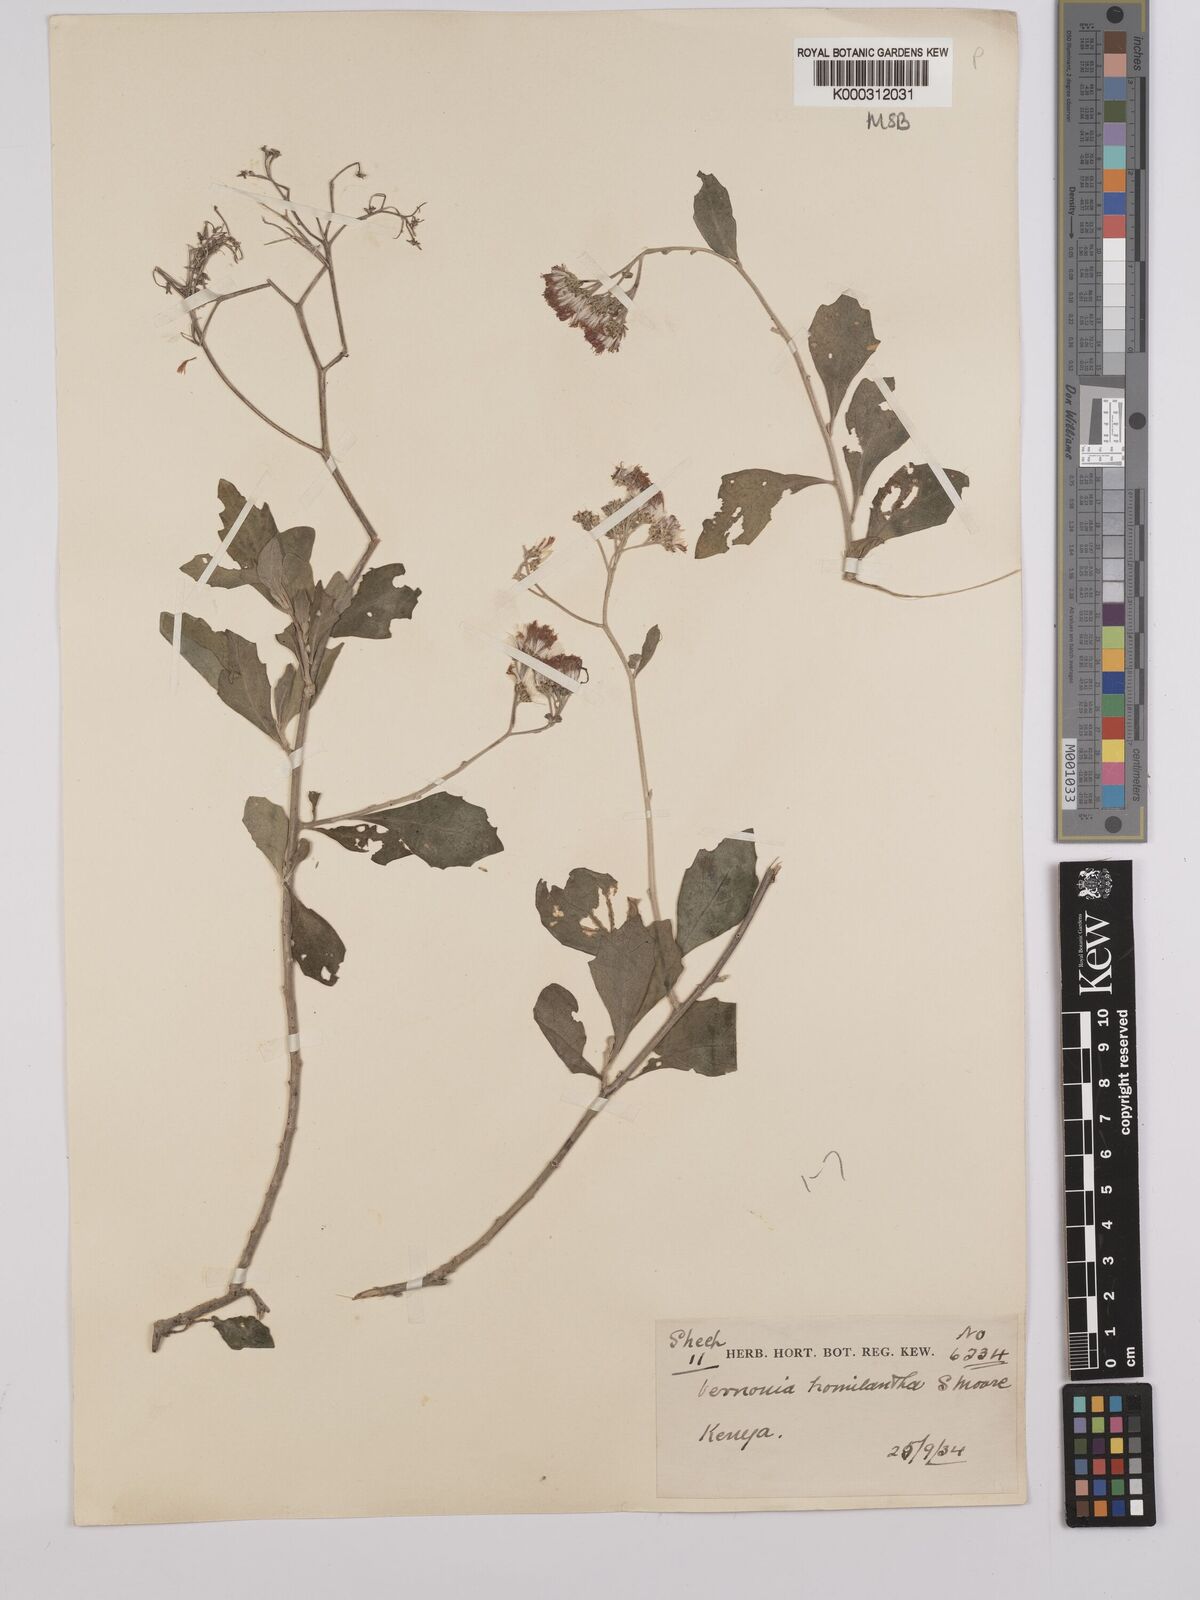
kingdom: Plantae
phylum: Tracheophyta
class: Magnoliopsida
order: Asterales
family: Asteraceae
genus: Orbivestus
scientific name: Orbivestus homilanthus
